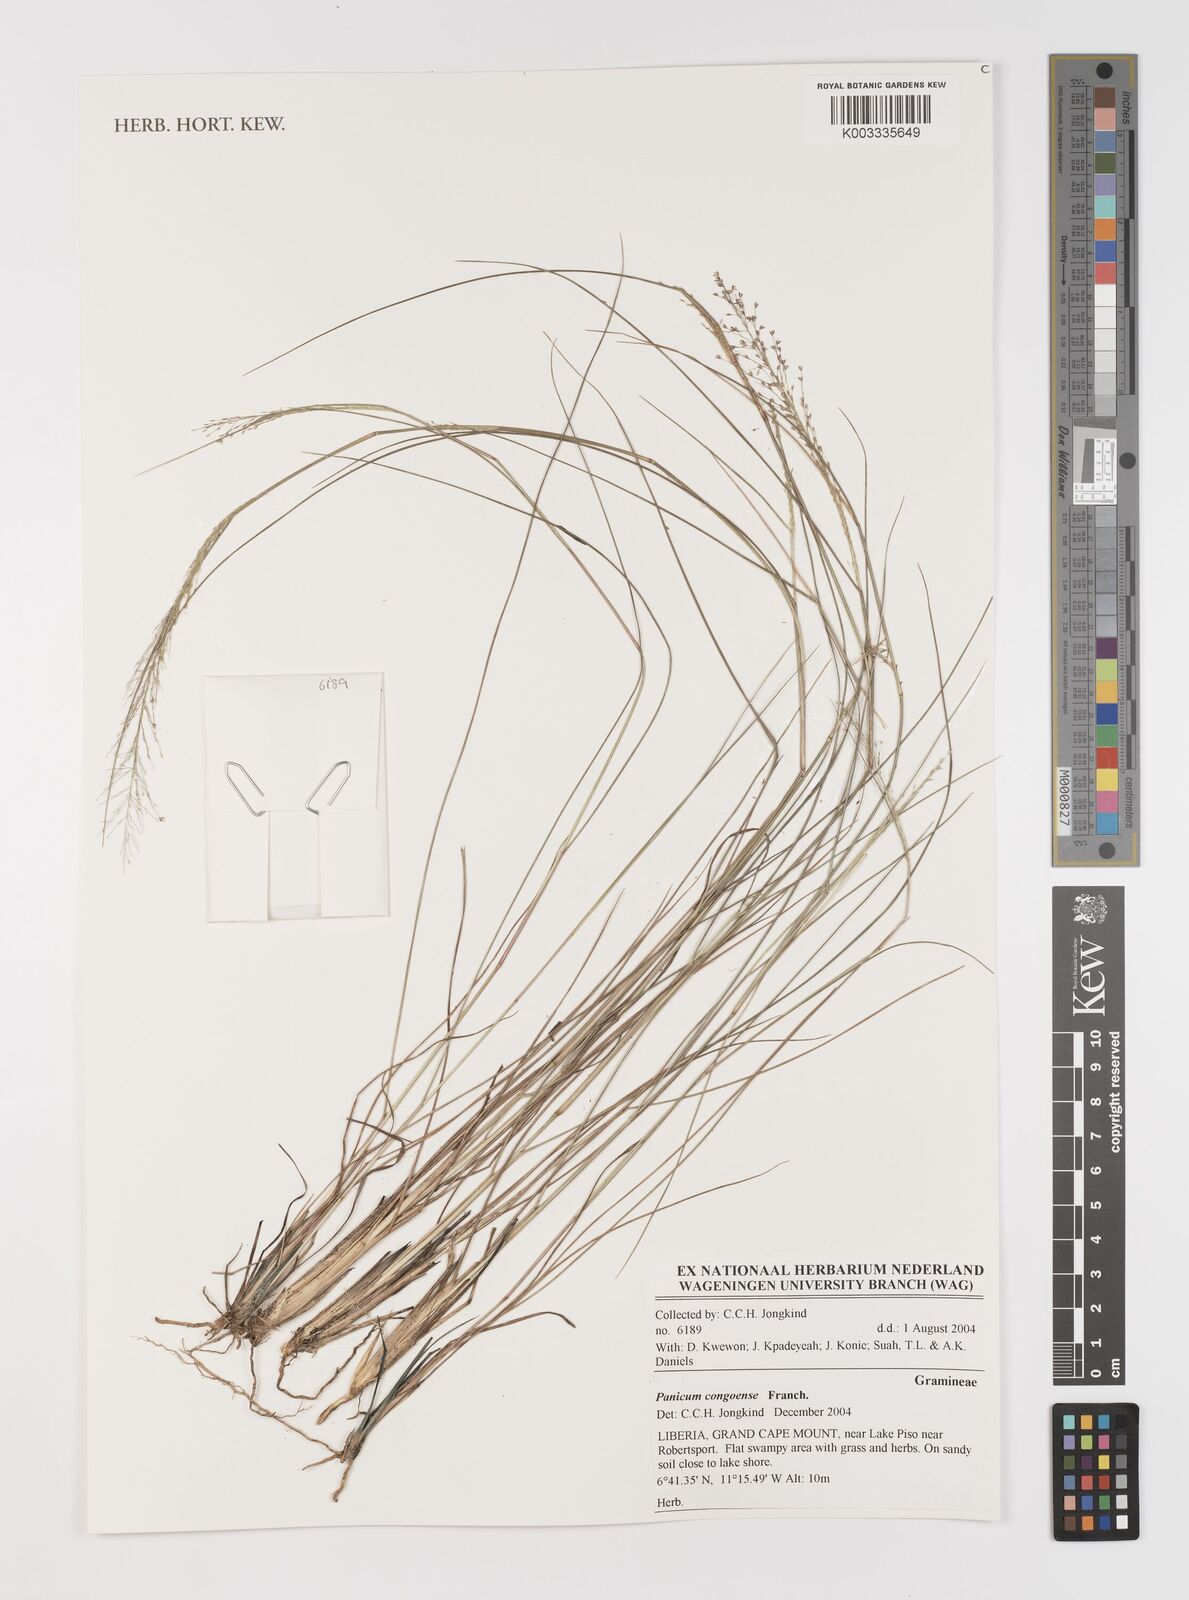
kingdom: Plantae
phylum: Tracheophyta
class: Liliopsida
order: Poales
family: Poaceae
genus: Panicum
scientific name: Panicum congoense
